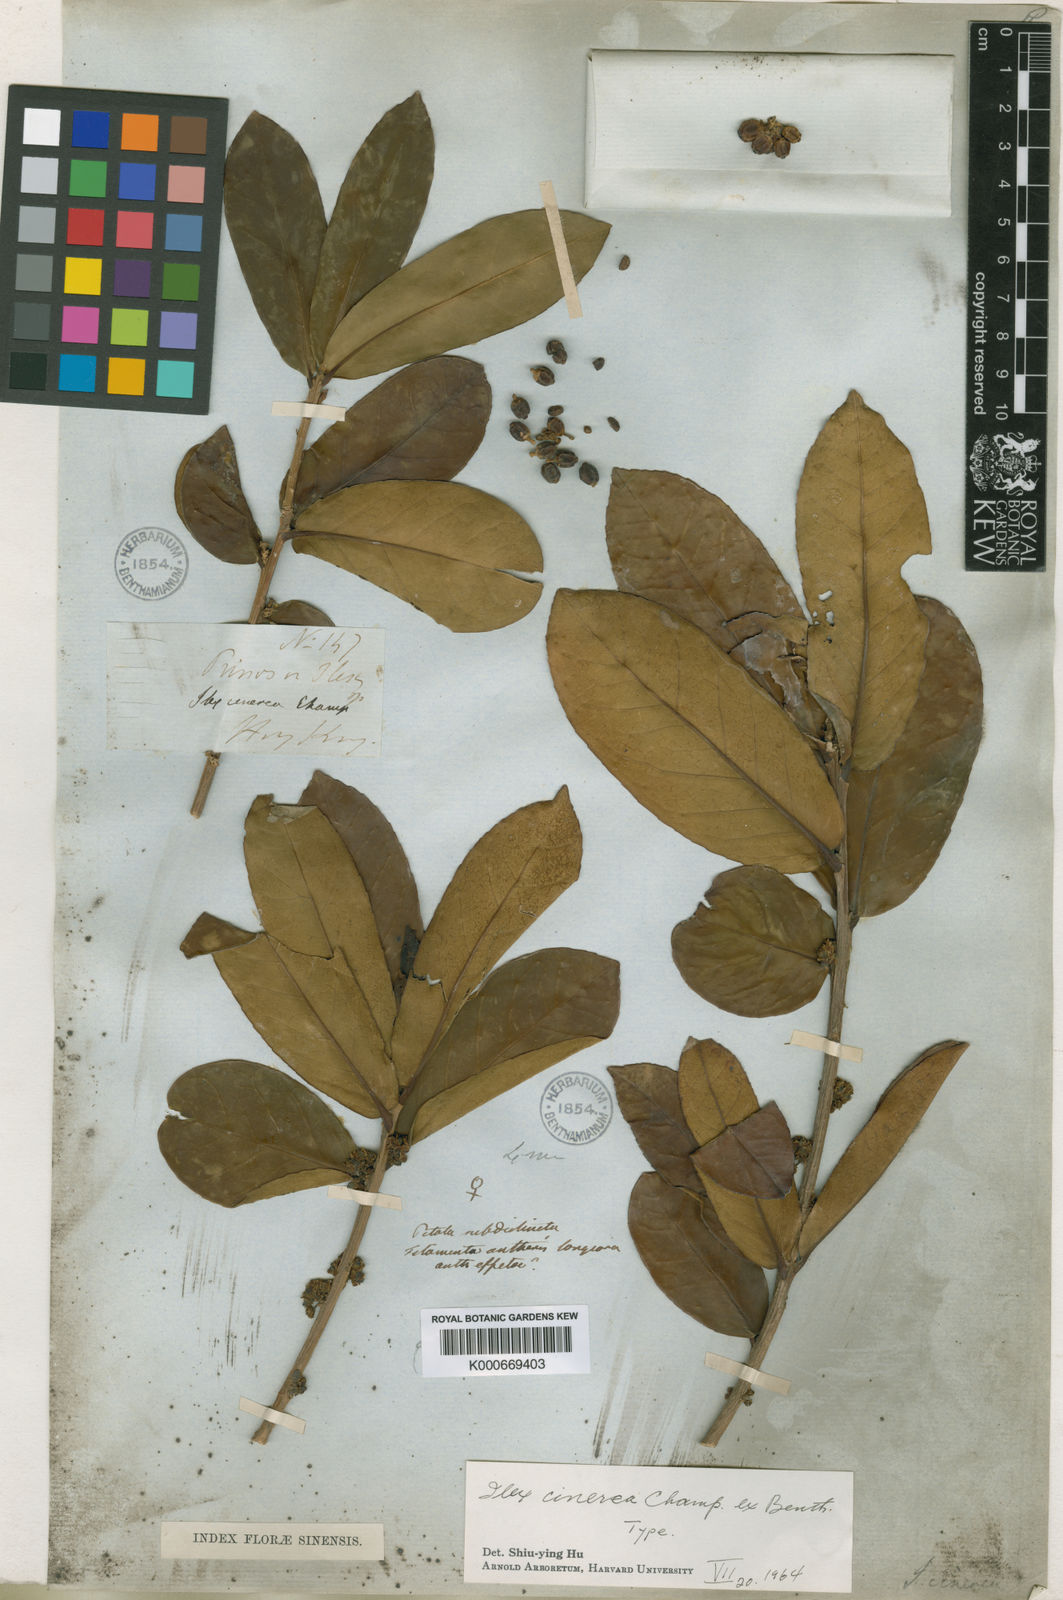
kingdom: Plantae
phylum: Tracheophyta
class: Magnoliopsida
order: Aquifoliales
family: Aquifoliaceae
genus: Ilex
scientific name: Ilex cinerea
